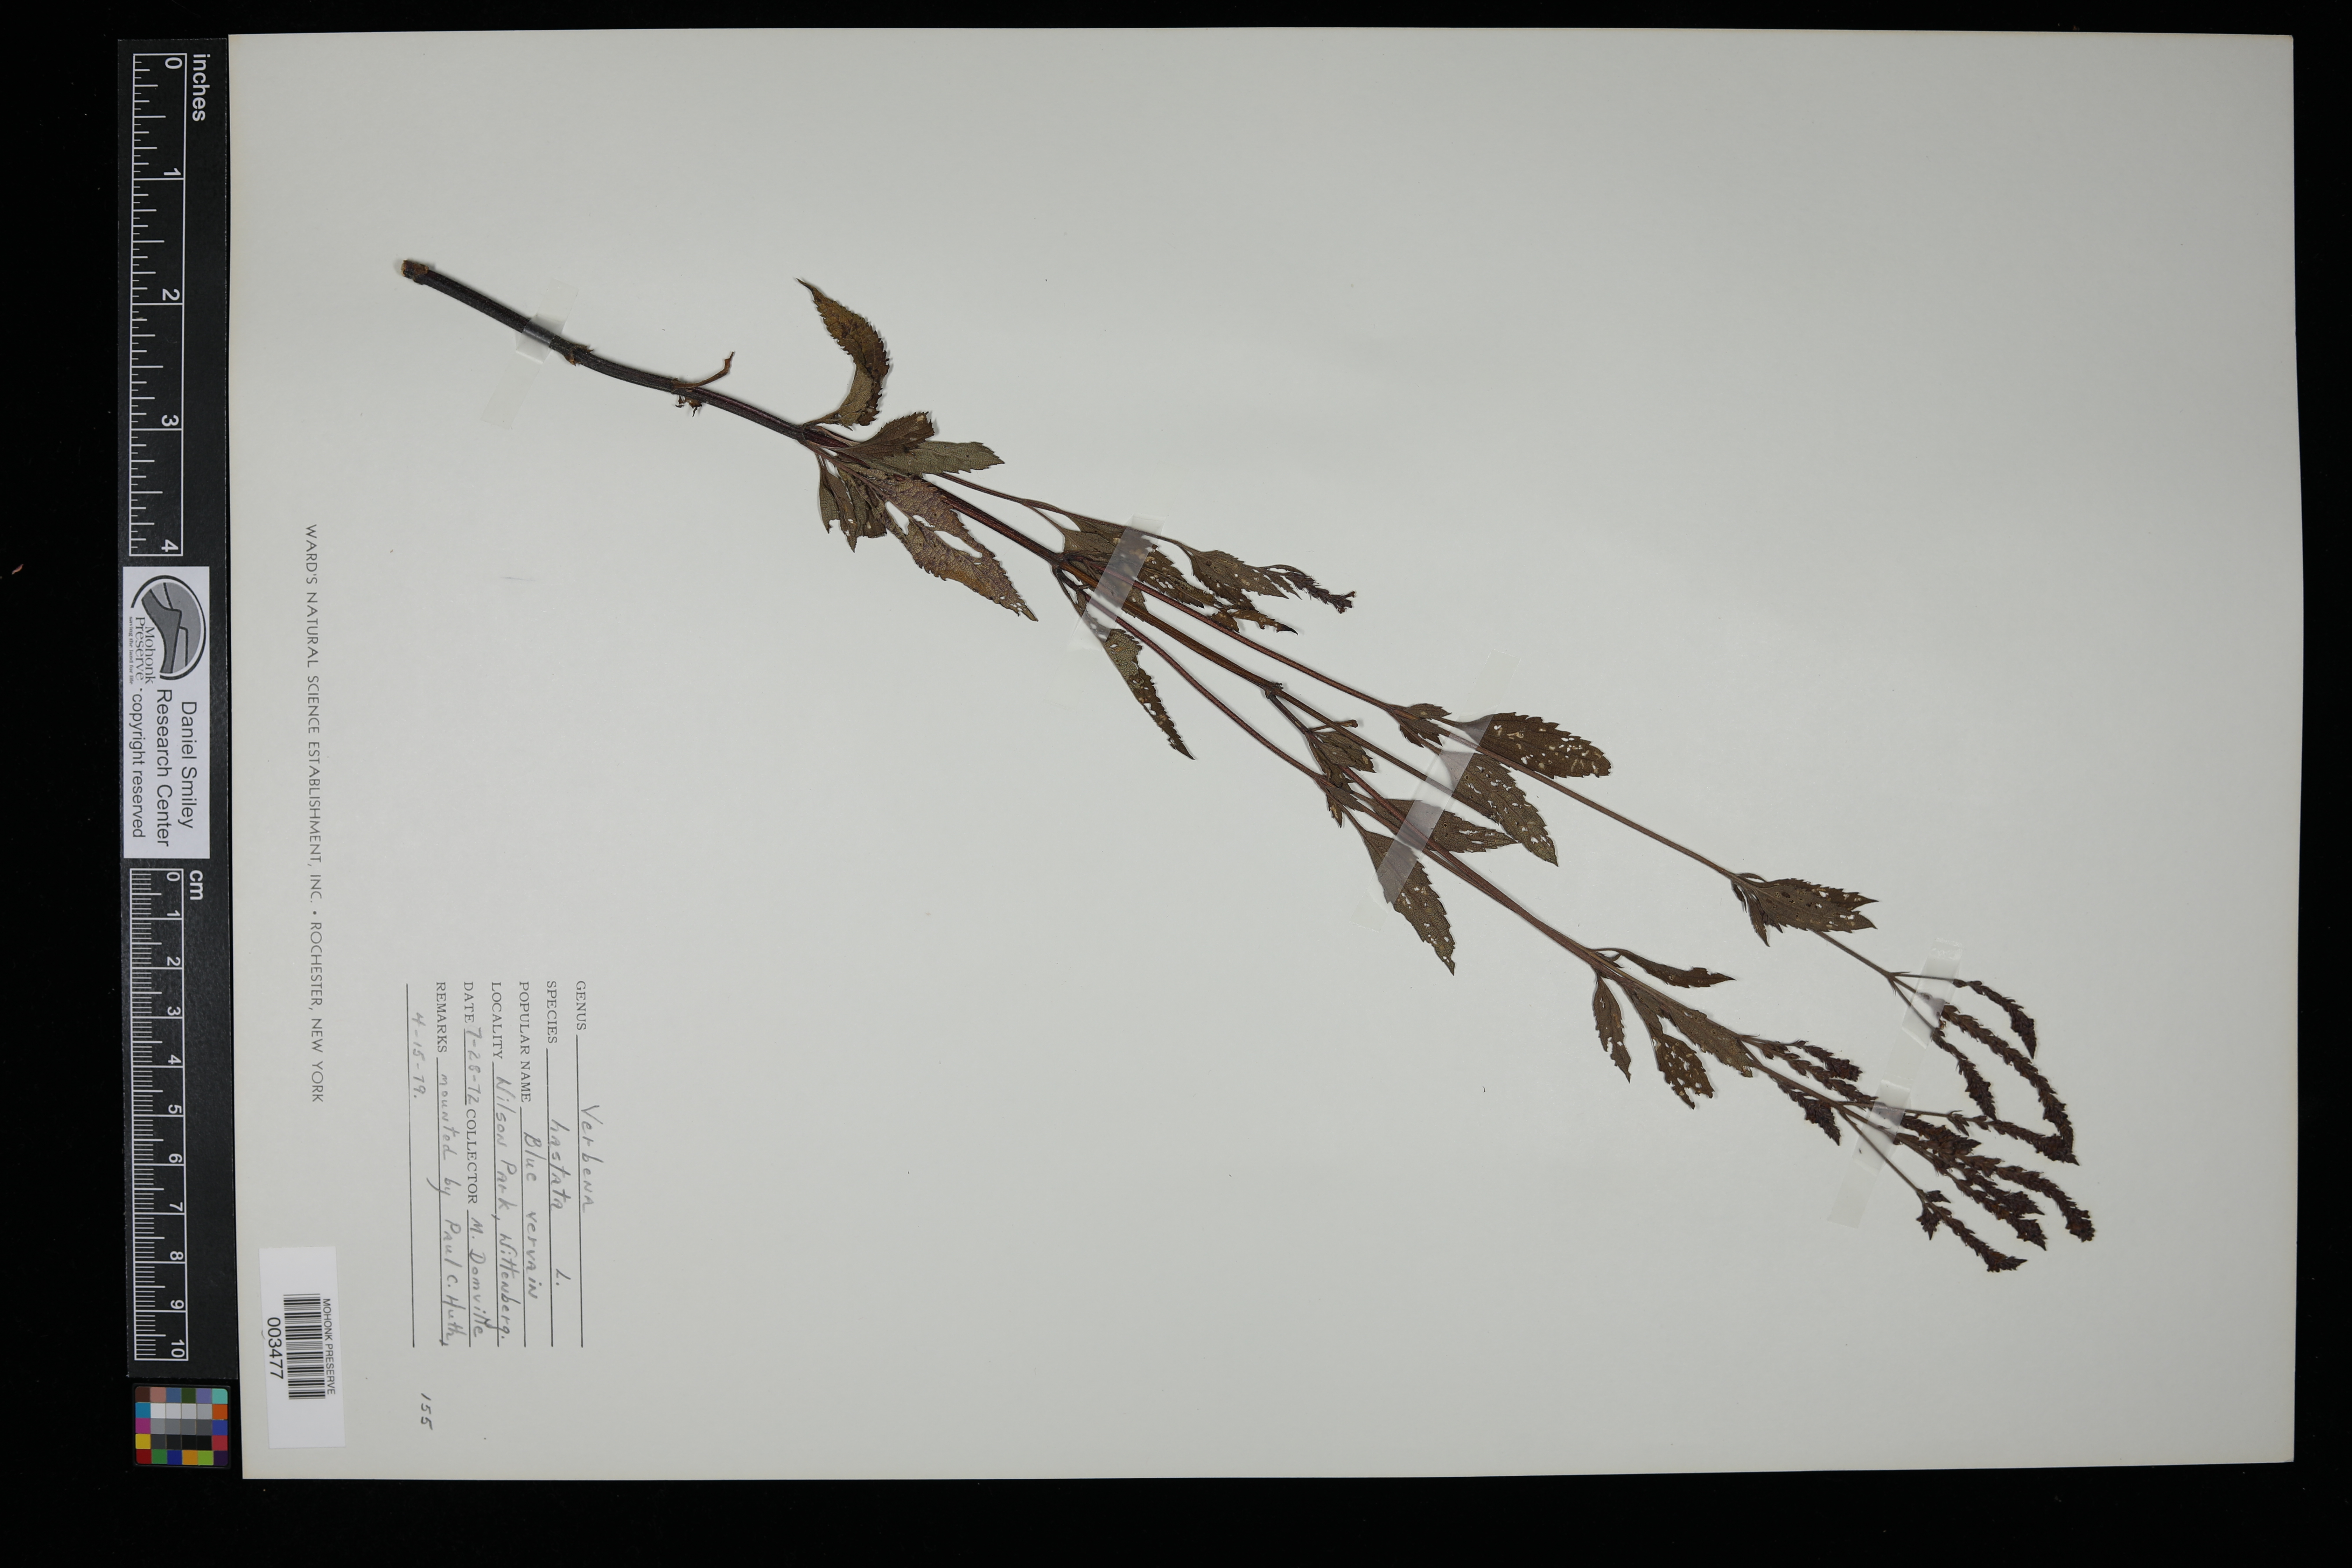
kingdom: Plantae
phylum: Tracheophyta
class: Magnoliopsida
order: Lamiales
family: Verbenaceae
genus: Verbena
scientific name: Verbena hastata
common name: American blue vervain
